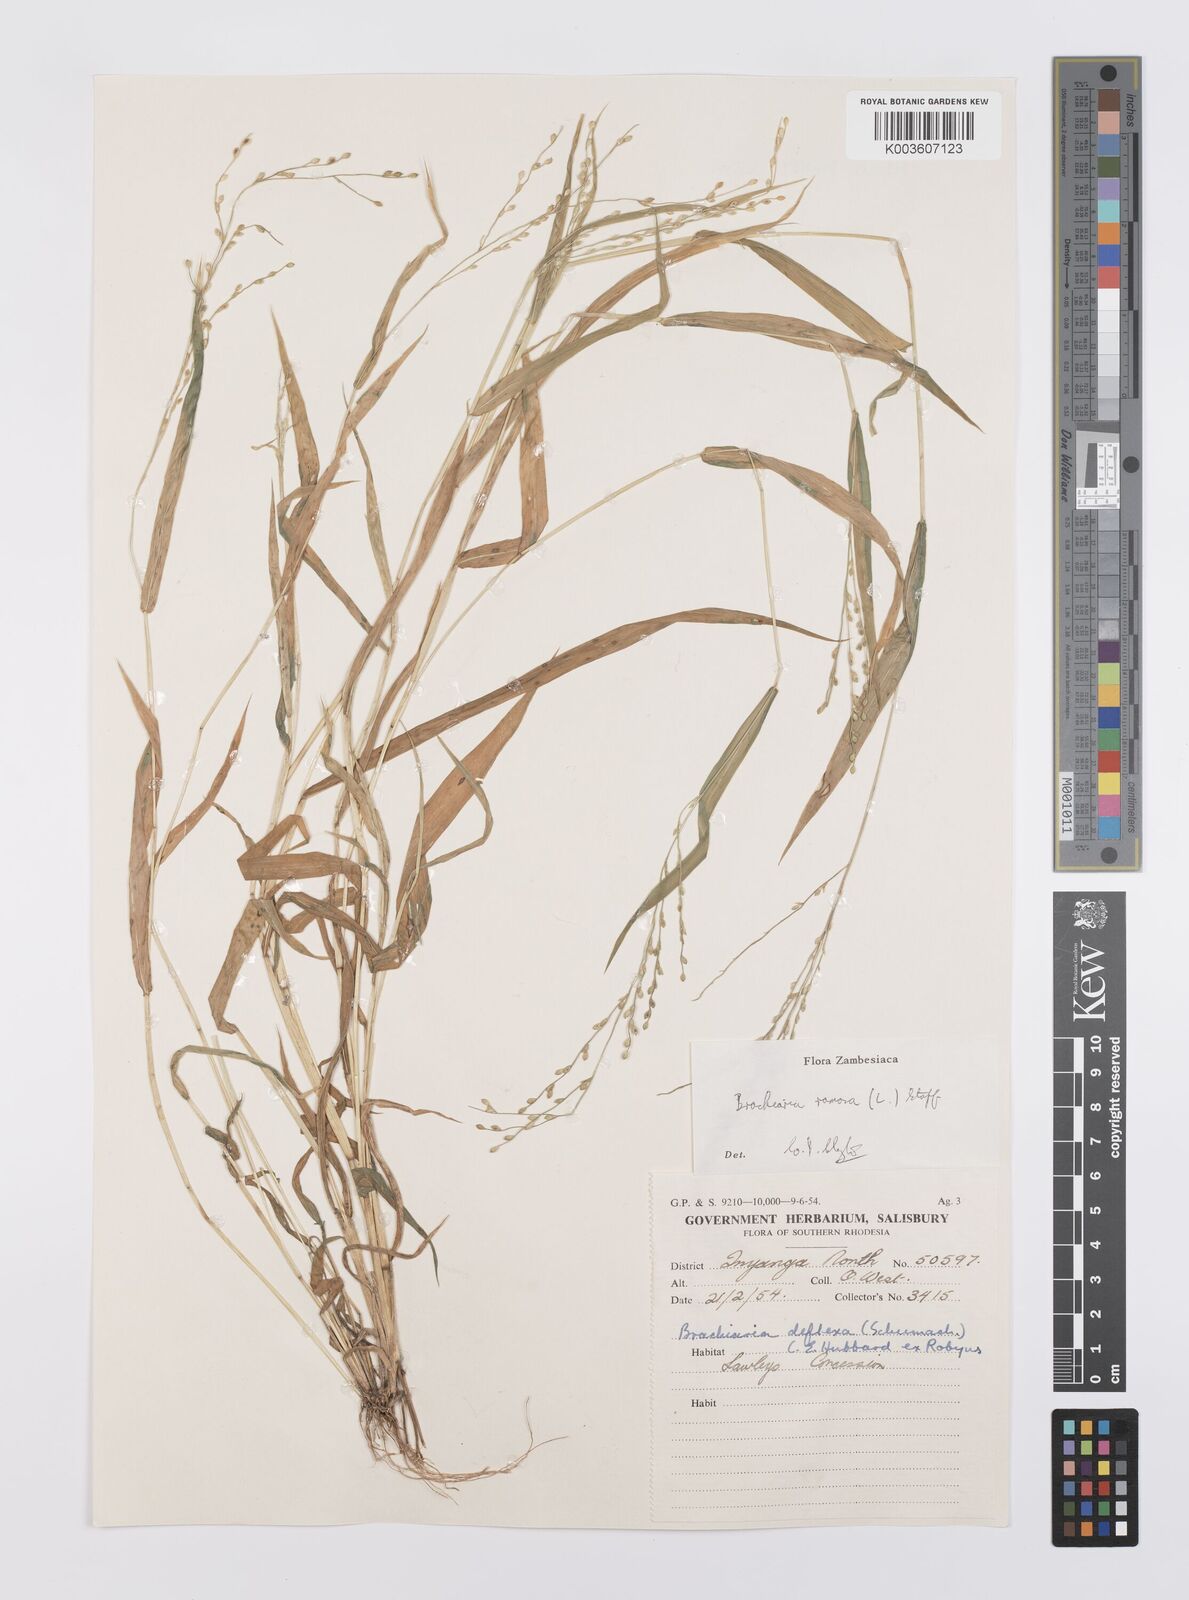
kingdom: Plantae
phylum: Tracheophyta
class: Liliopsida
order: Poales
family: Poaceae
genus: Urochloa
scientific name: Urochloa ramosa
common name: Browntop millet
